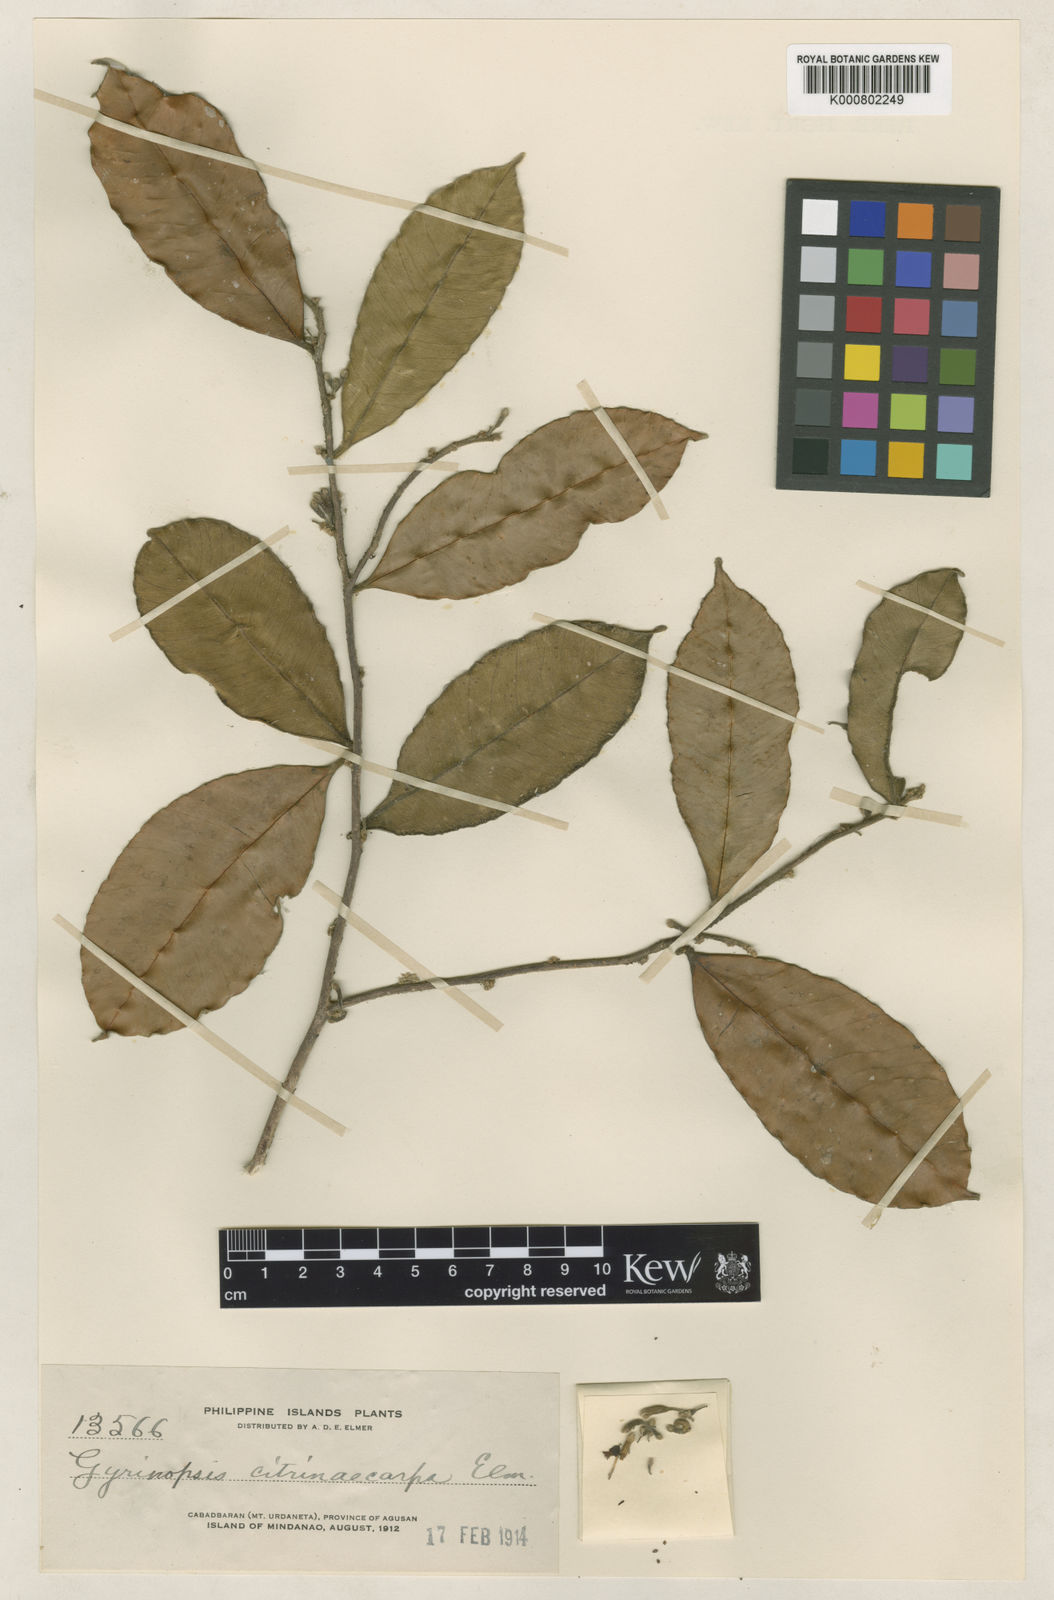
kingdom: Plantae
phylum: Tracheophyta
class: Magnoliopsida
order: Malvales
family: Thymelaeaceae
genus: Aquilaria
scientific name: Aquilaria citrinicarpa
